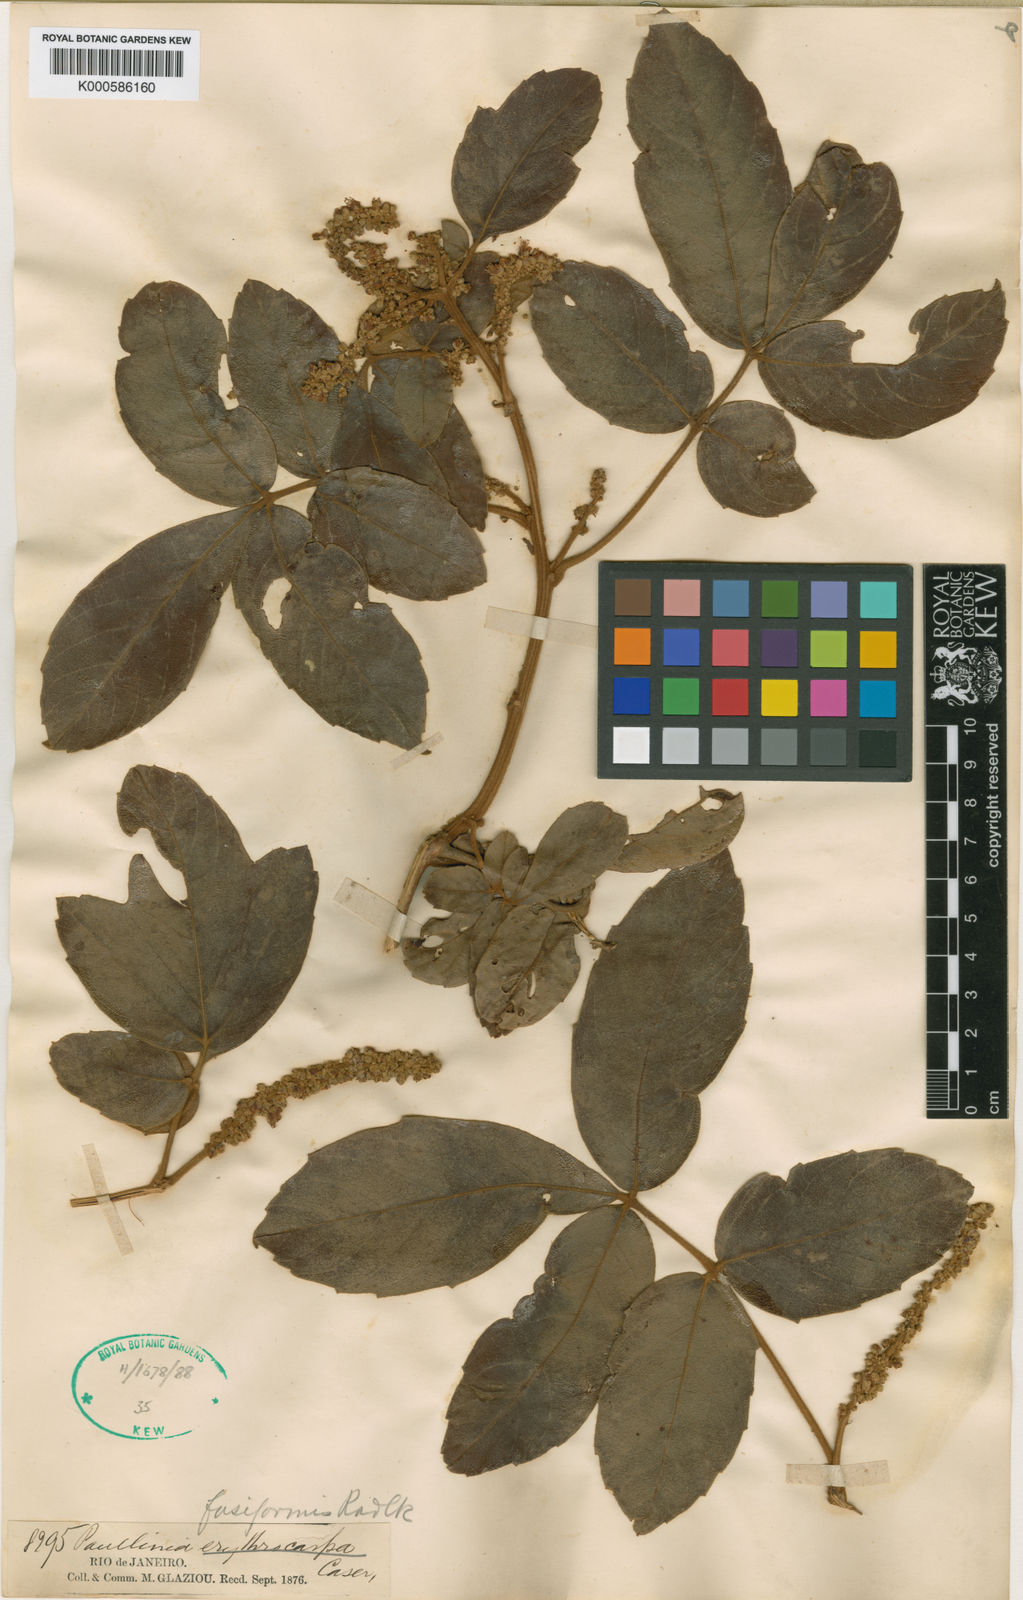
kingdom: Plantae
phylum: Tracheophyta
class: Magnoliopsida
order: Sapindales
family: Sapindaceae
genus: Paullinia
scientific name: Paullinia fusiformis
